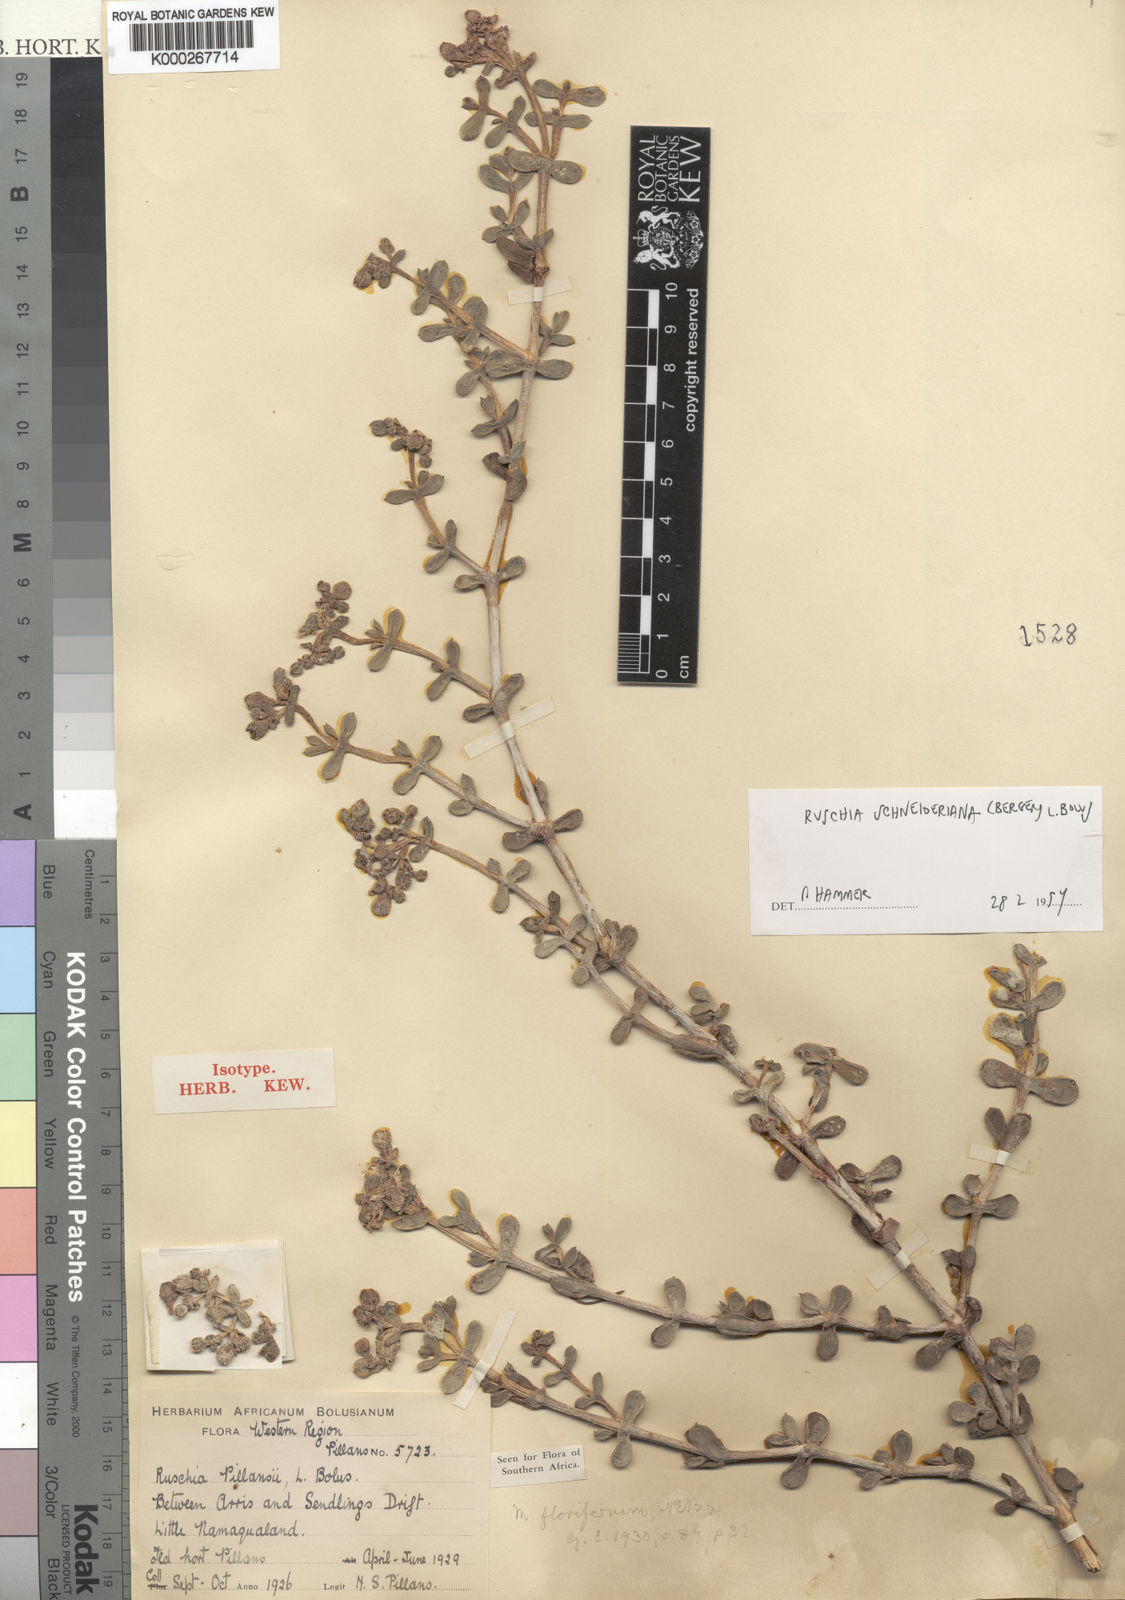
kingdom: Plantae
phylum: Tracheophyta
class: Magnoliopsida
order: Caryophyllales
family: Aizoaceae
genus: Eberlanzia
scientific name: Eberlanzia schneideriana
